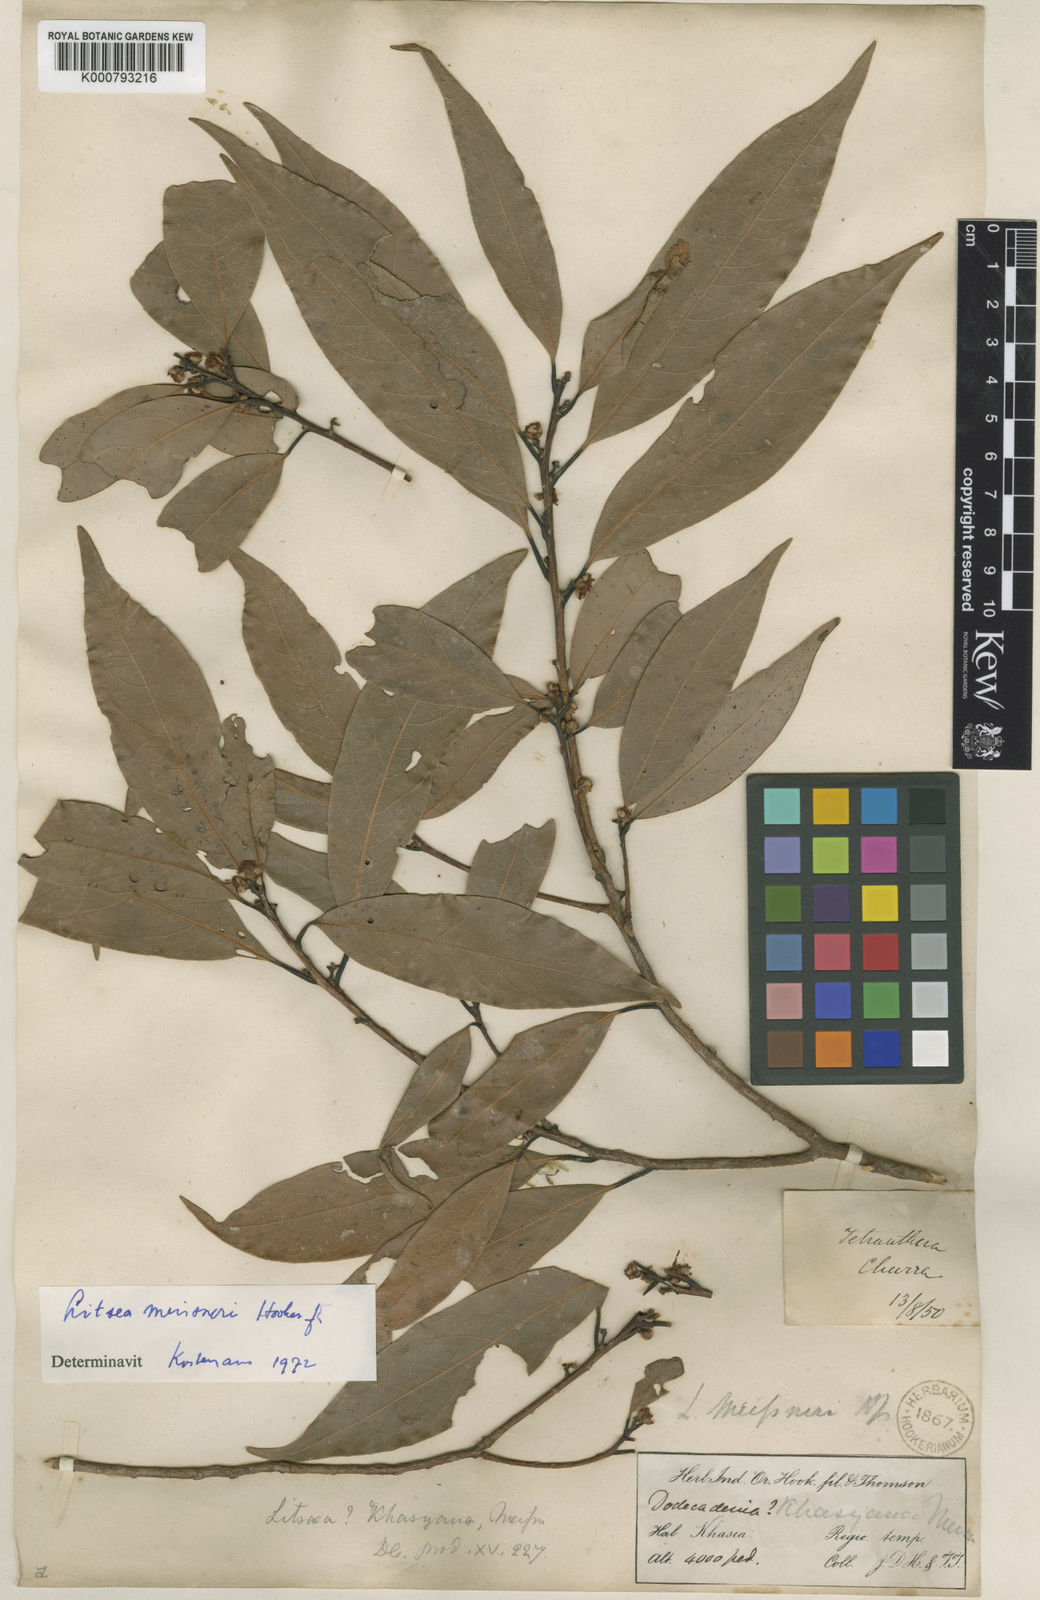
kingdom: Plantae
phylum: Tracheophyta
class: Magnoliopsida
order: Laurales
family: Lauraceae
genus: Litsea
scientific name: Litsea khasyana
